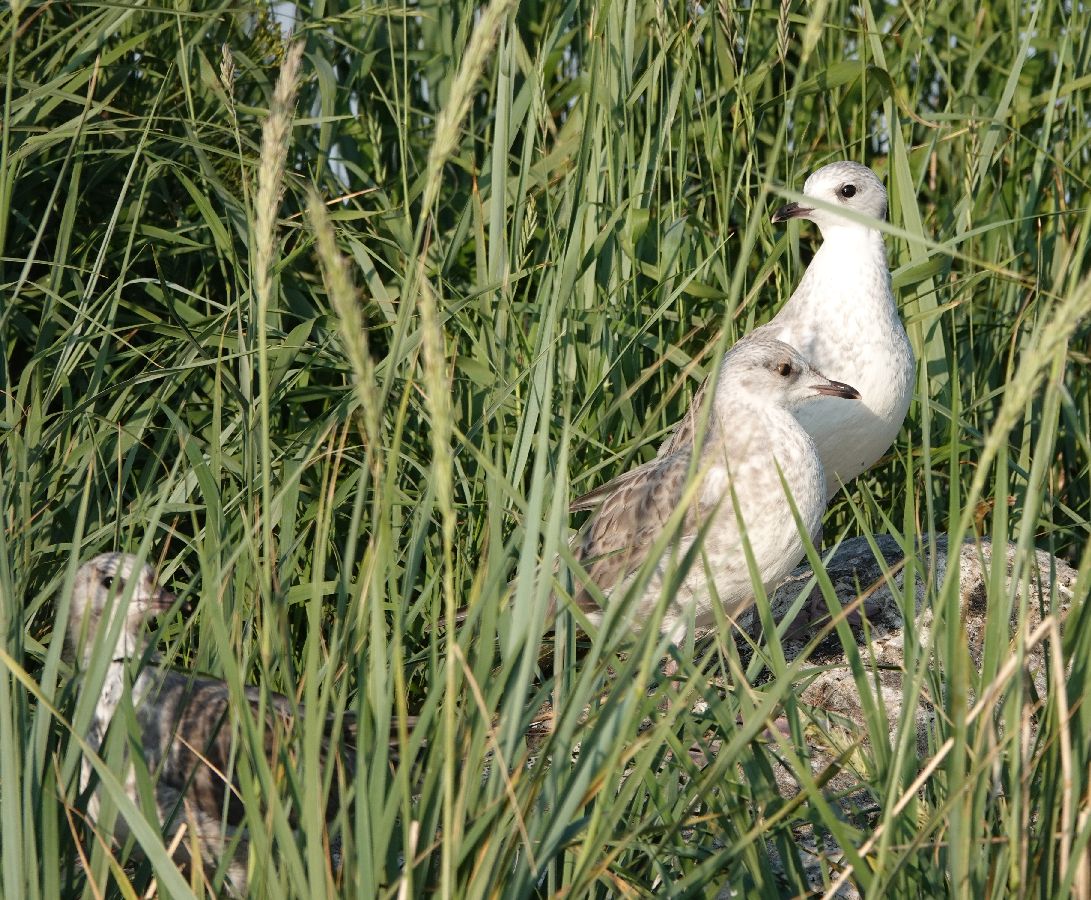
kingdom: Animalia
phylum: Chordata
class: Aves
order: Charadriiformes
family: Laridae
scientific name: Laridae
